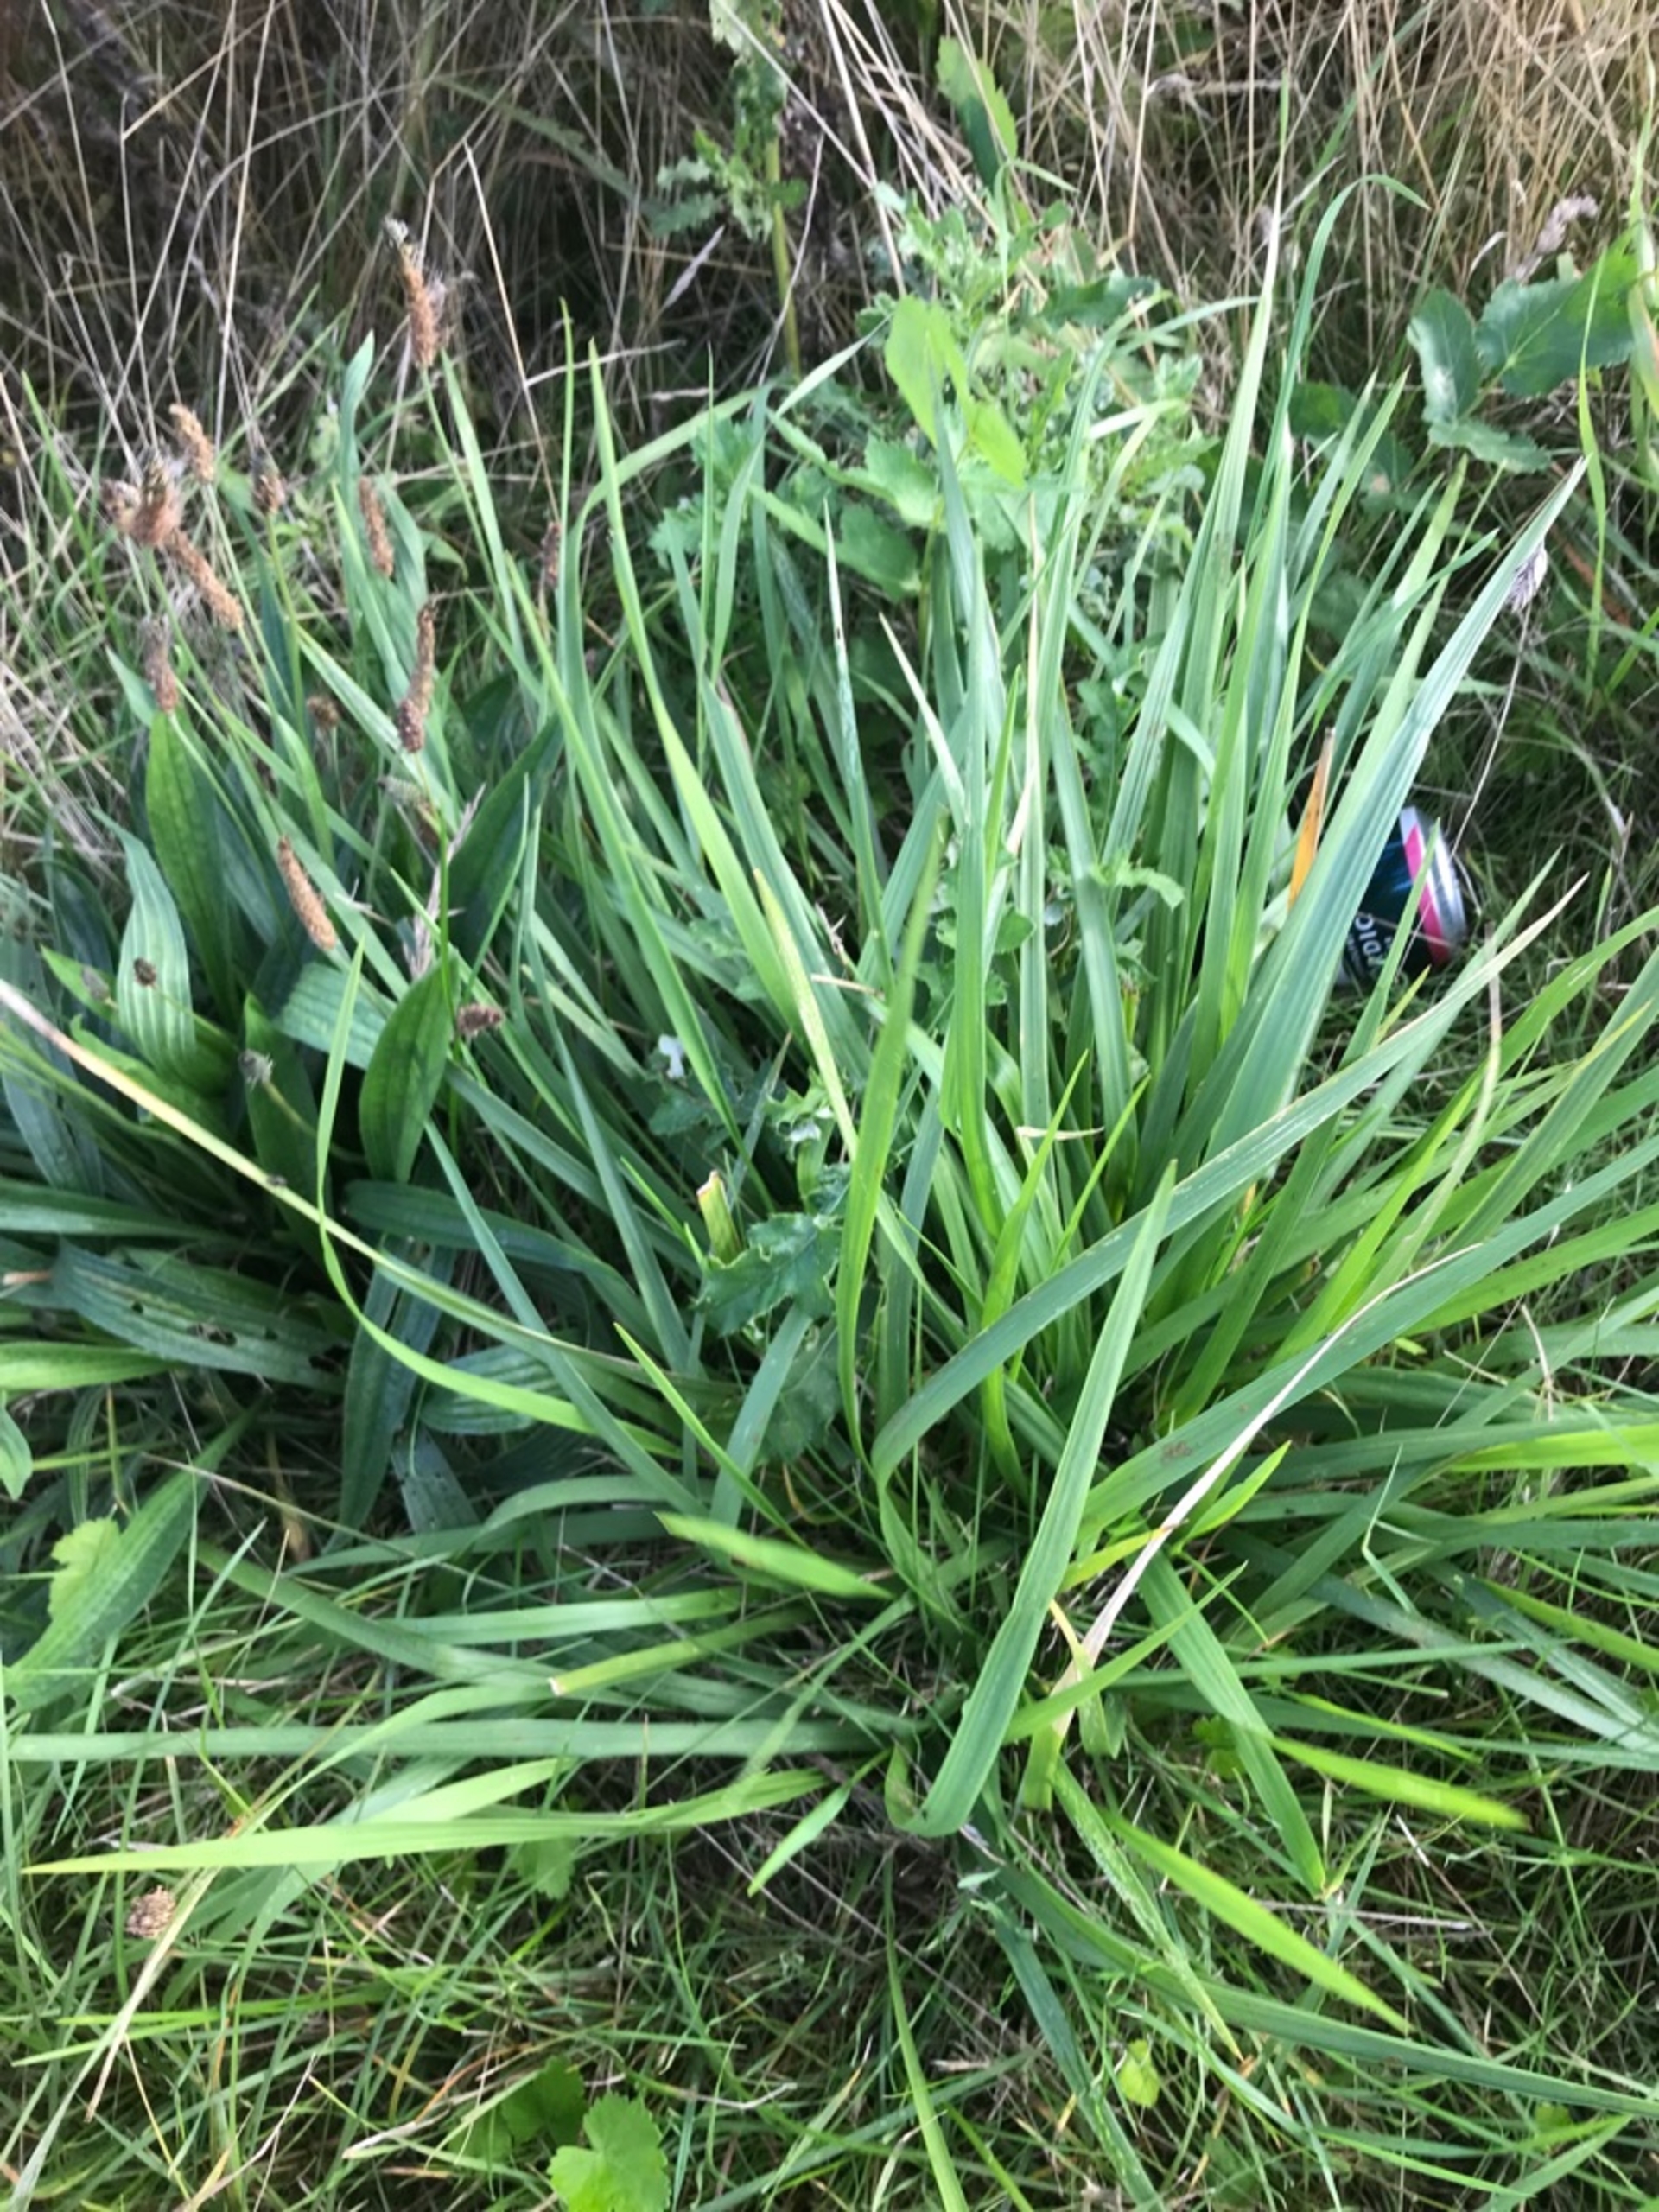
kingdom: Plantae
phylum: Tracheophyta
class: Liliopsida
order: Poales
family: Poaceae
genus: Dactylis
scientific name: Dactylis glomerata
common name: Almindelig hundegræs
